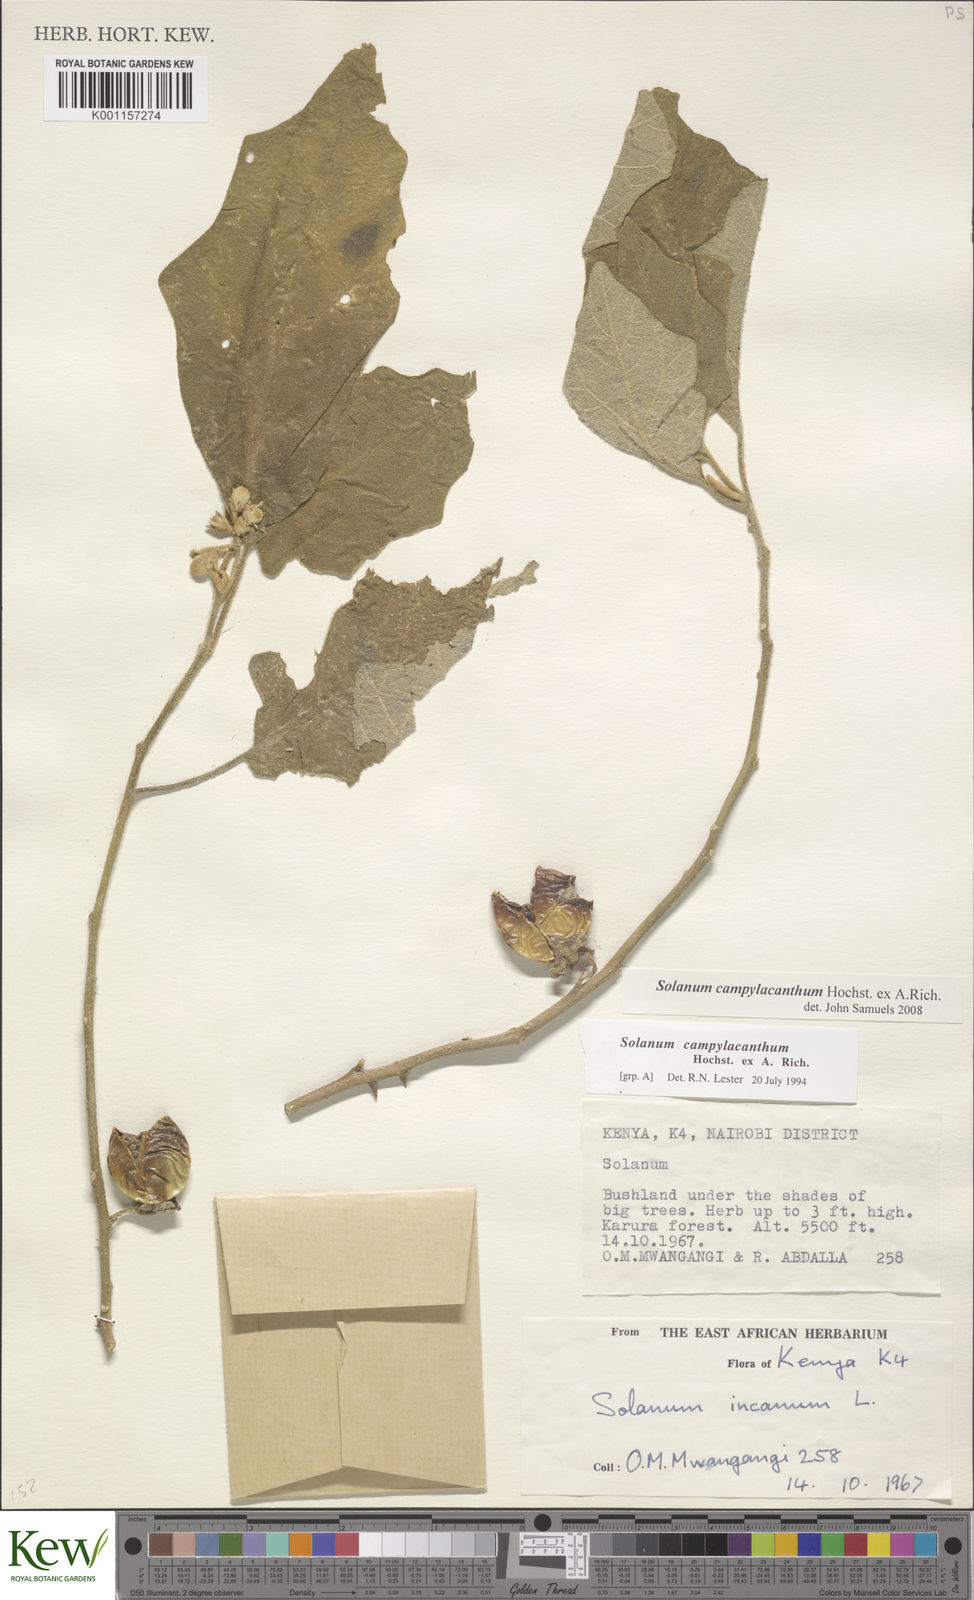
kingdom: Plantae
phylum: Tracheophyta
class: Magnoliopsida
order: Solanales
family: Solanaceae
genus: Solanum
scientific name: Solanum campylacanthum
